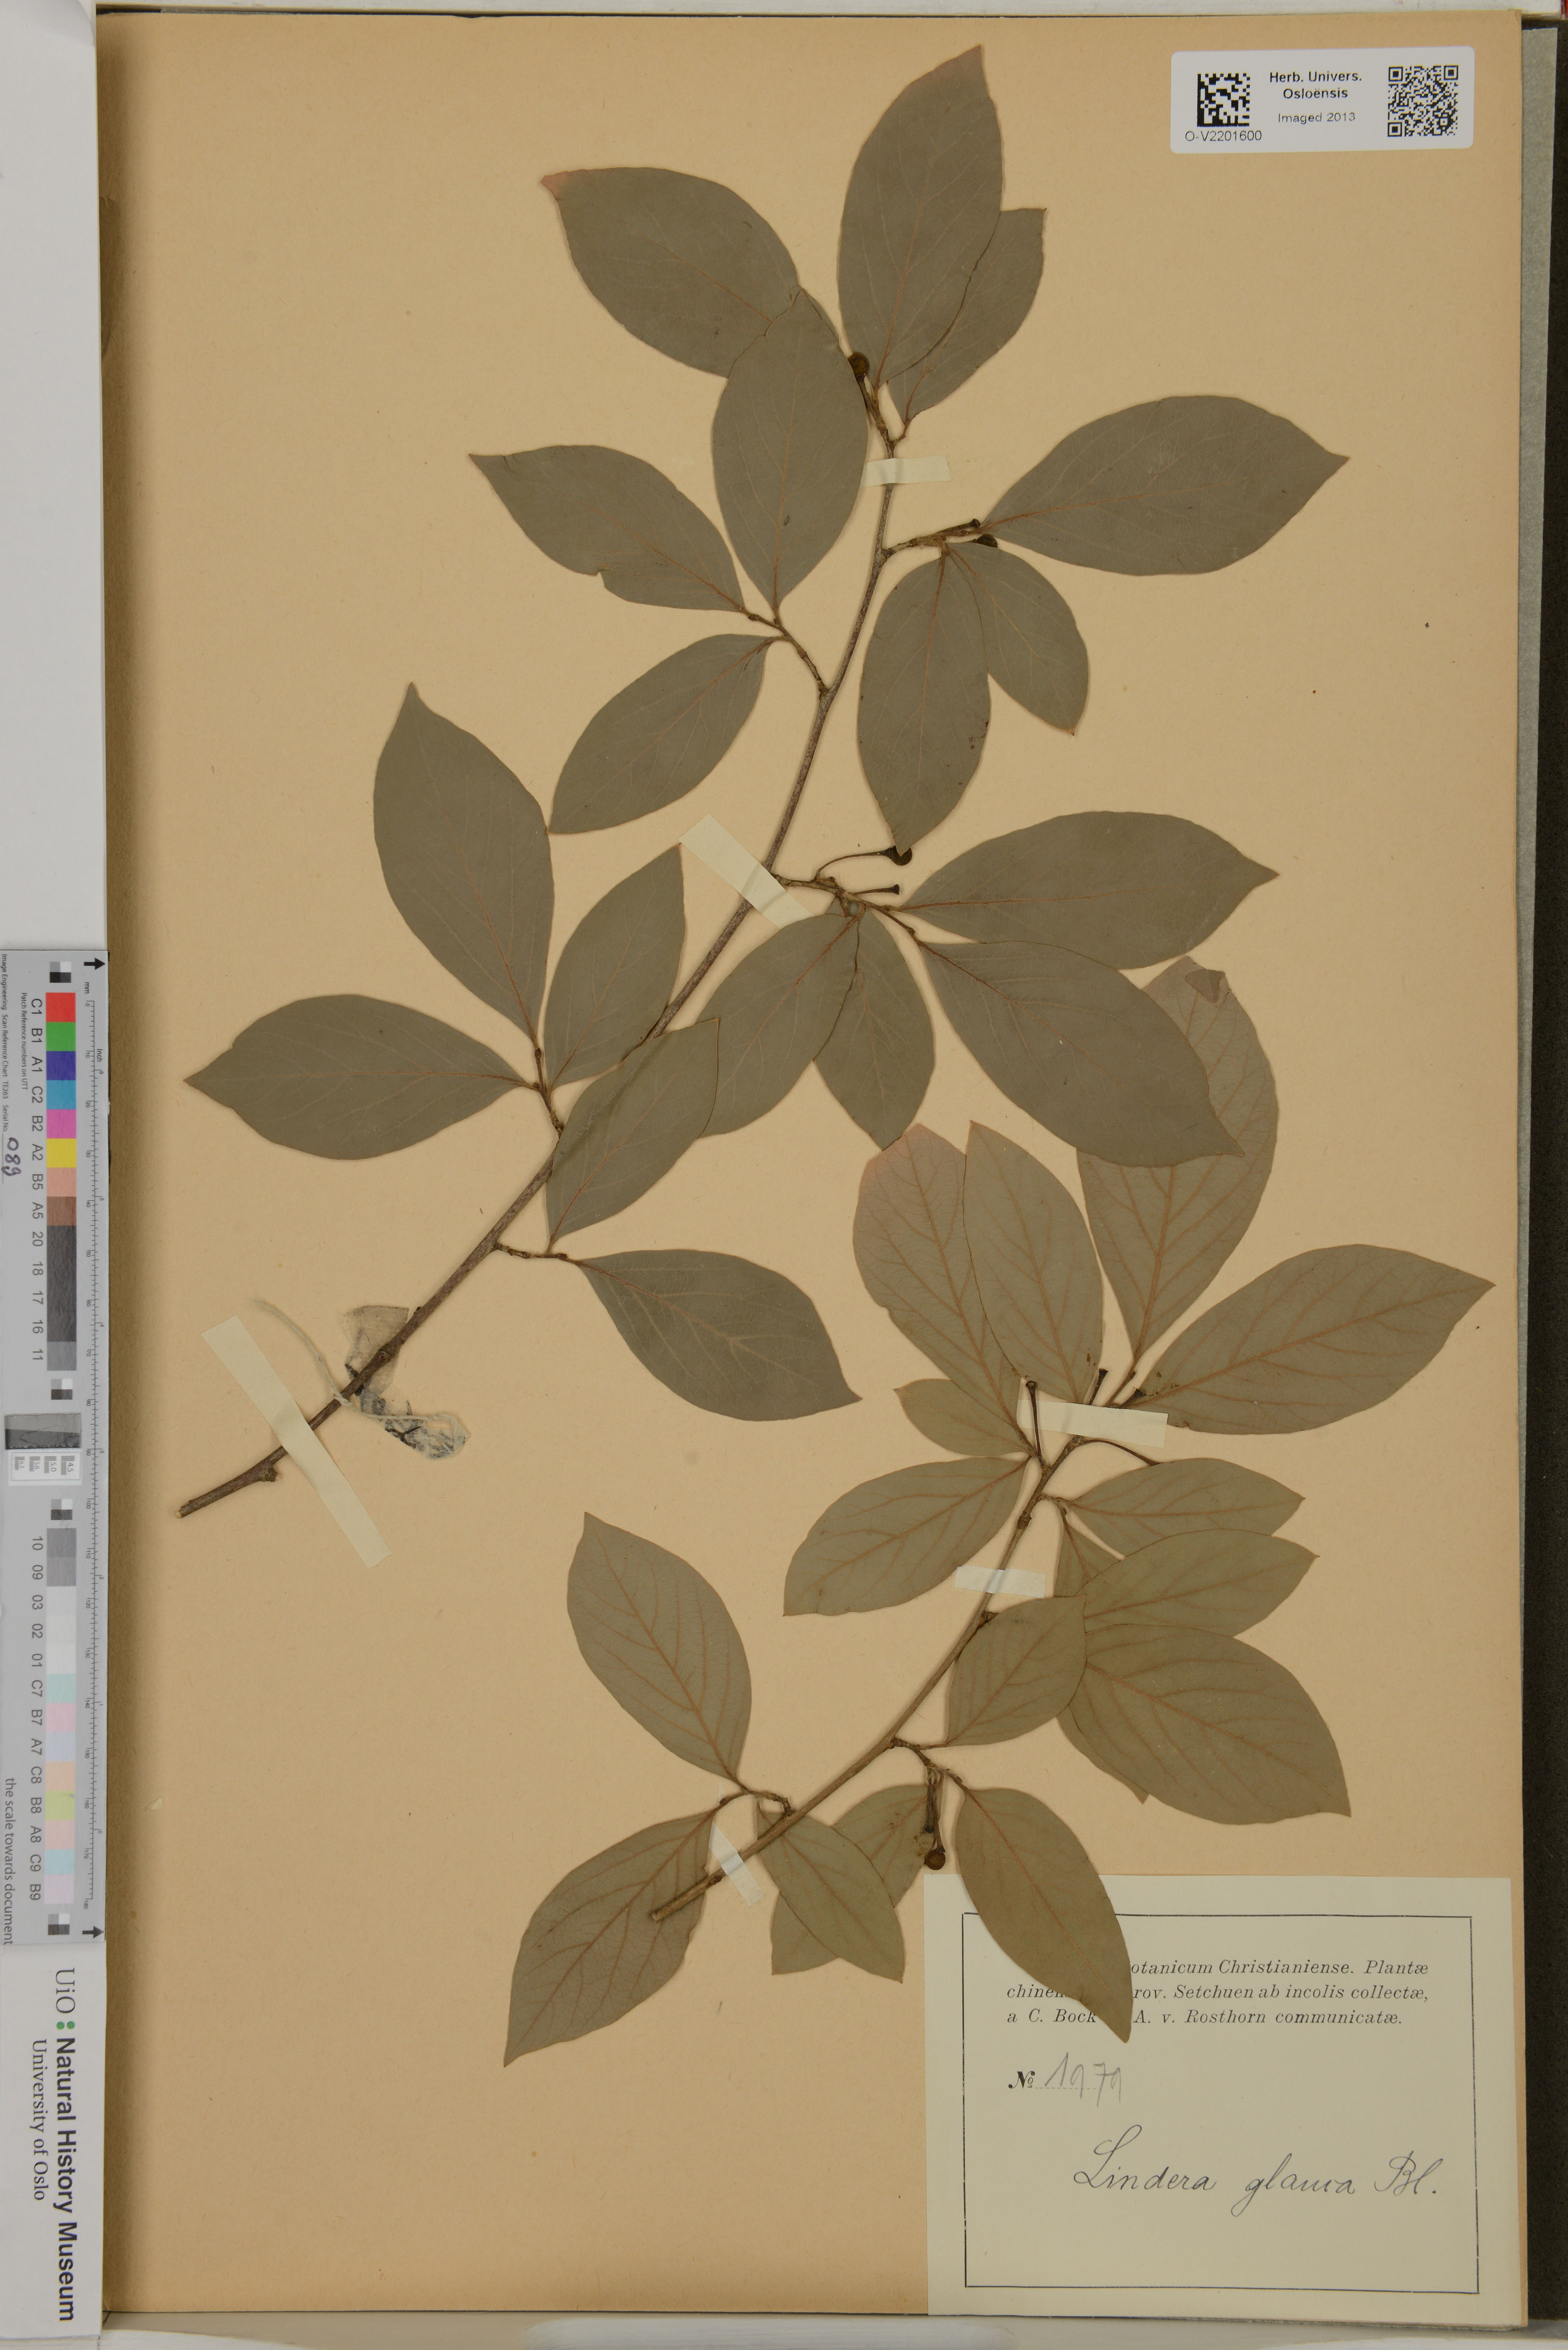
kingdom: Plantae
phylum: Tracheophyta
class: Magnoliopsida
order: Laurales
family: Lauraceae
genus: Lindera
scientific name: Lindera glauca
